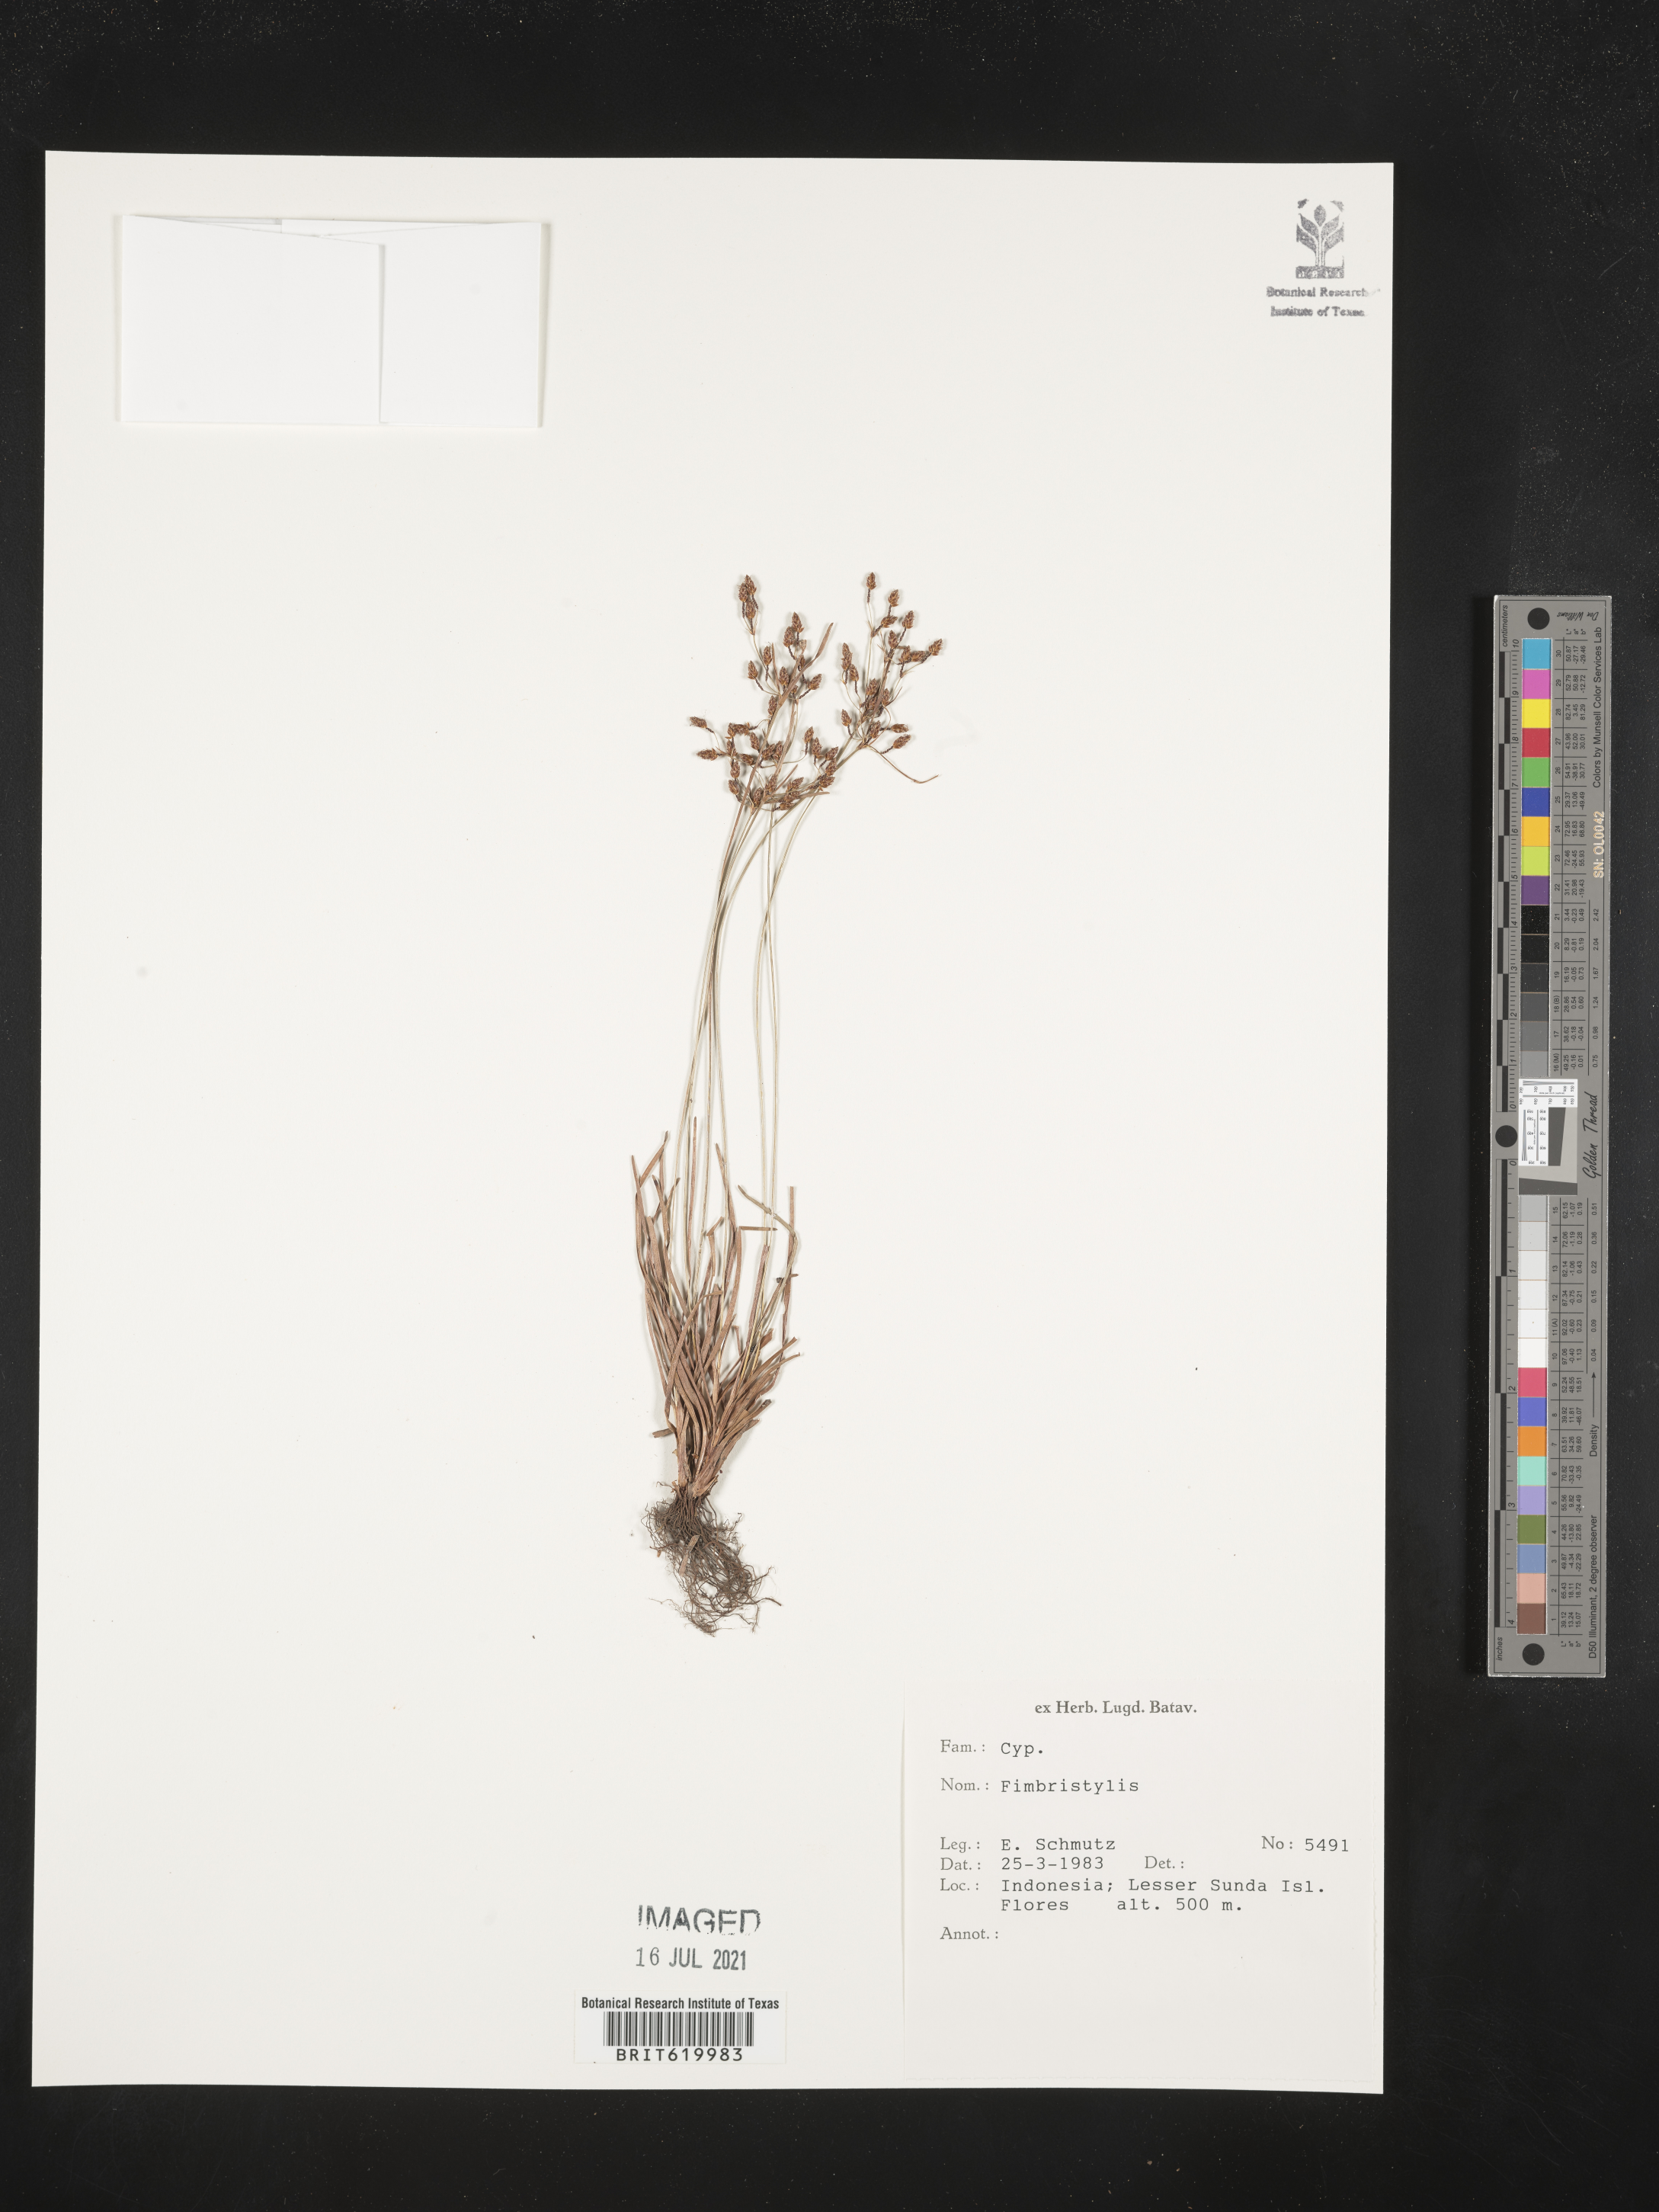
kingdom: Plantae
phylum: Tracheophyta
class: Liliopsida
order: Poales
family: Cyperaceae
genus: Fimbristylis
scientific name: Fimbristylis
